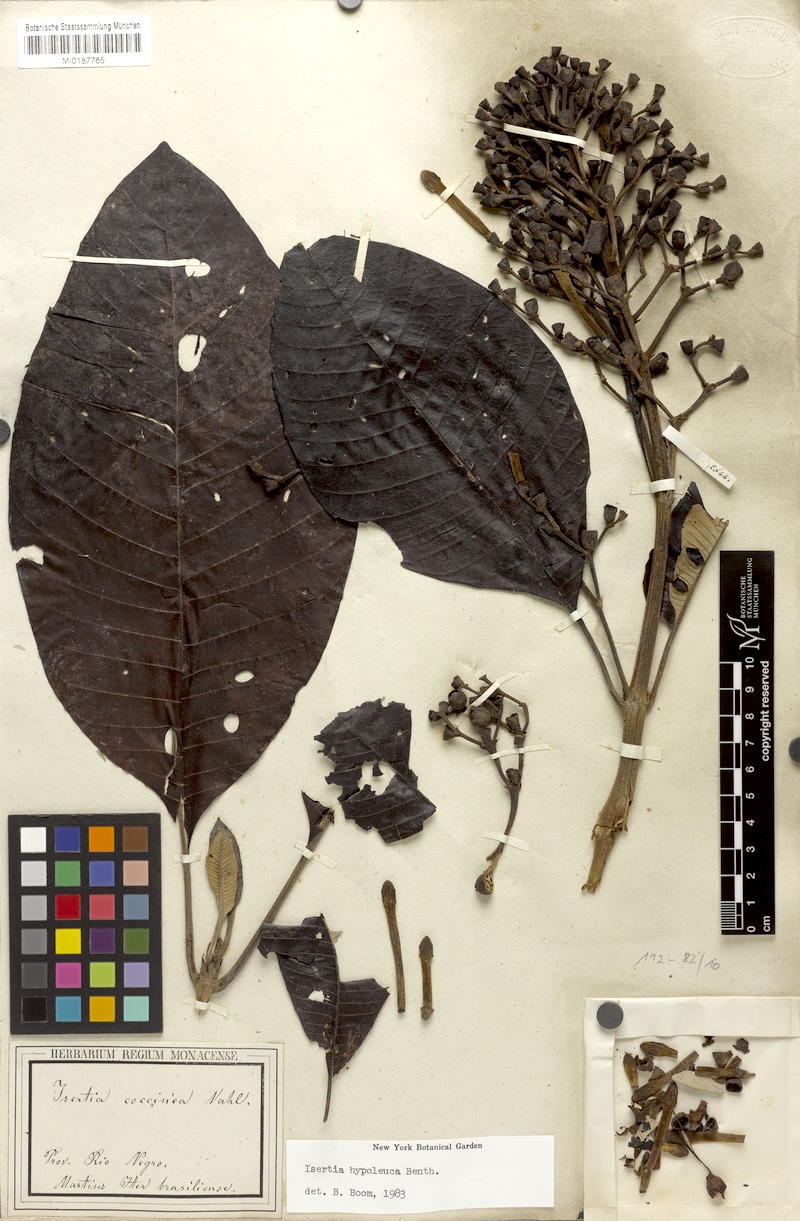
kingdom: Plantae
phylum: Tracheophyta
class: Magnoliopsida
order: Gentianales
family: Rubiaceae
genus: Isertia
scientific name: Isertia hypoleuca
